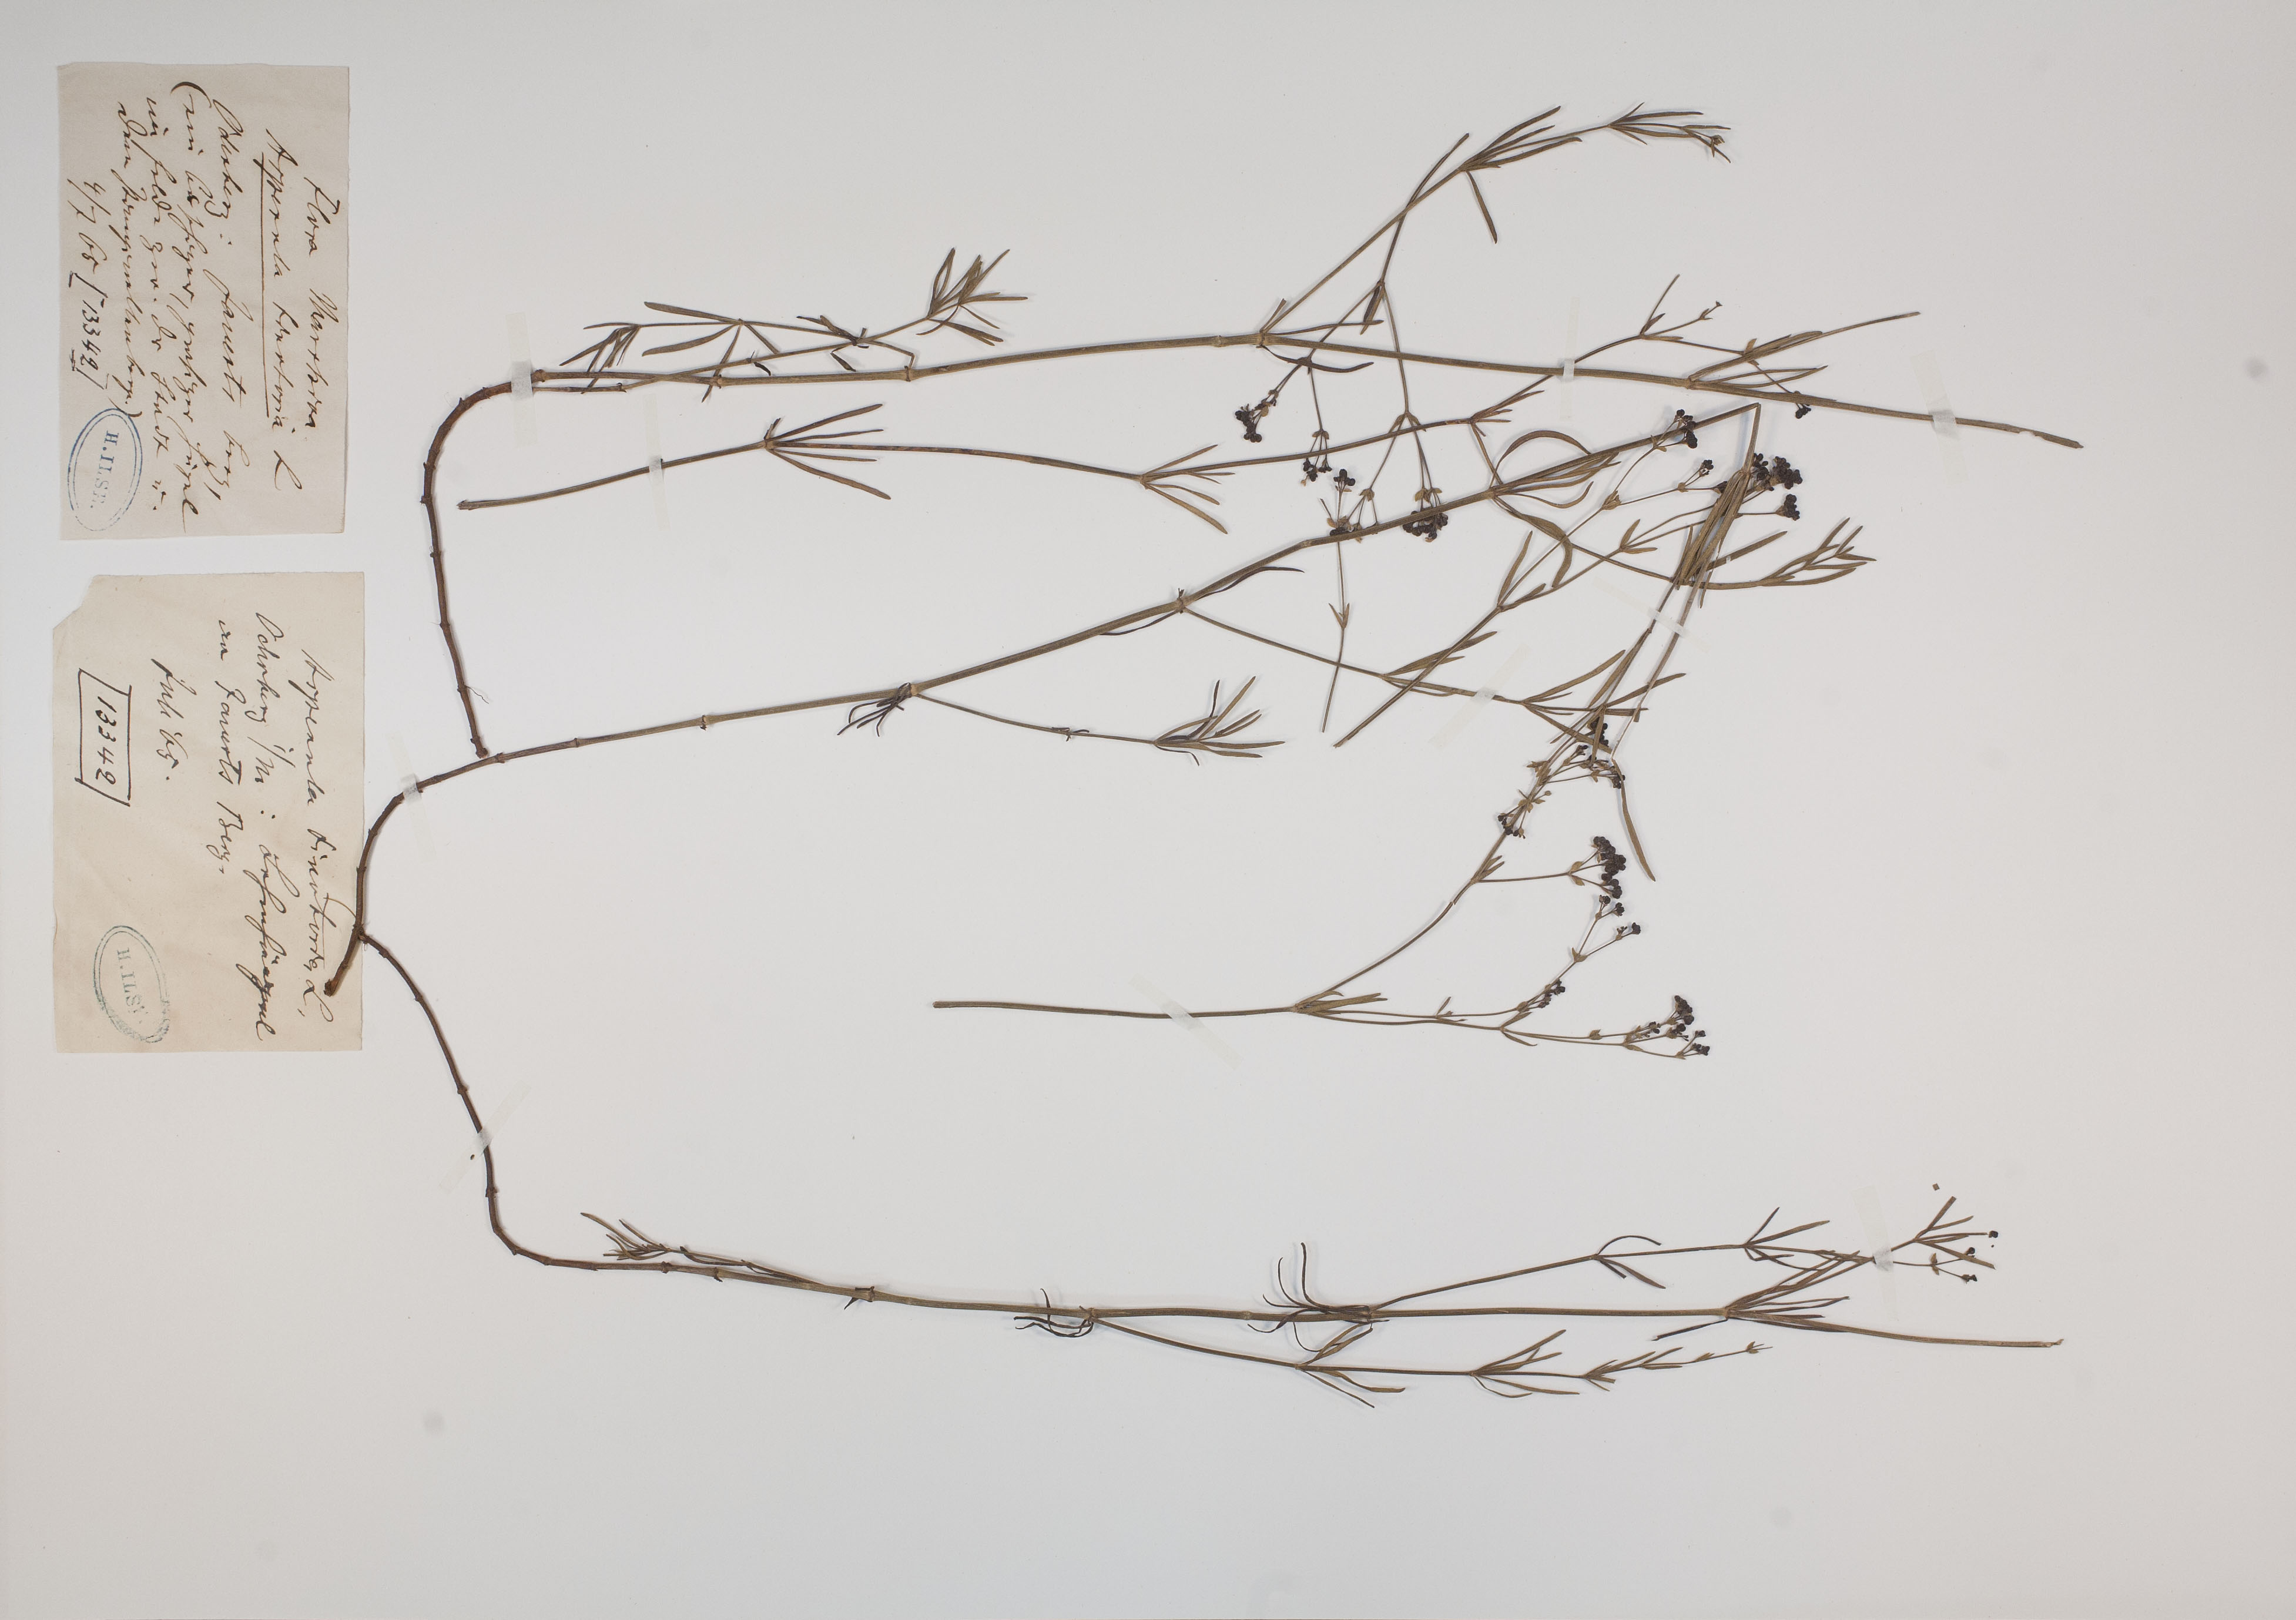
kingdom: Plantae
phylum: Tracheophyta
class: Magnoliopsida
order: Gentianales
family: Rubiaceae
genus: Asperula
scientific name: Asperula tinctoria
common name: Dyer's woodruff
